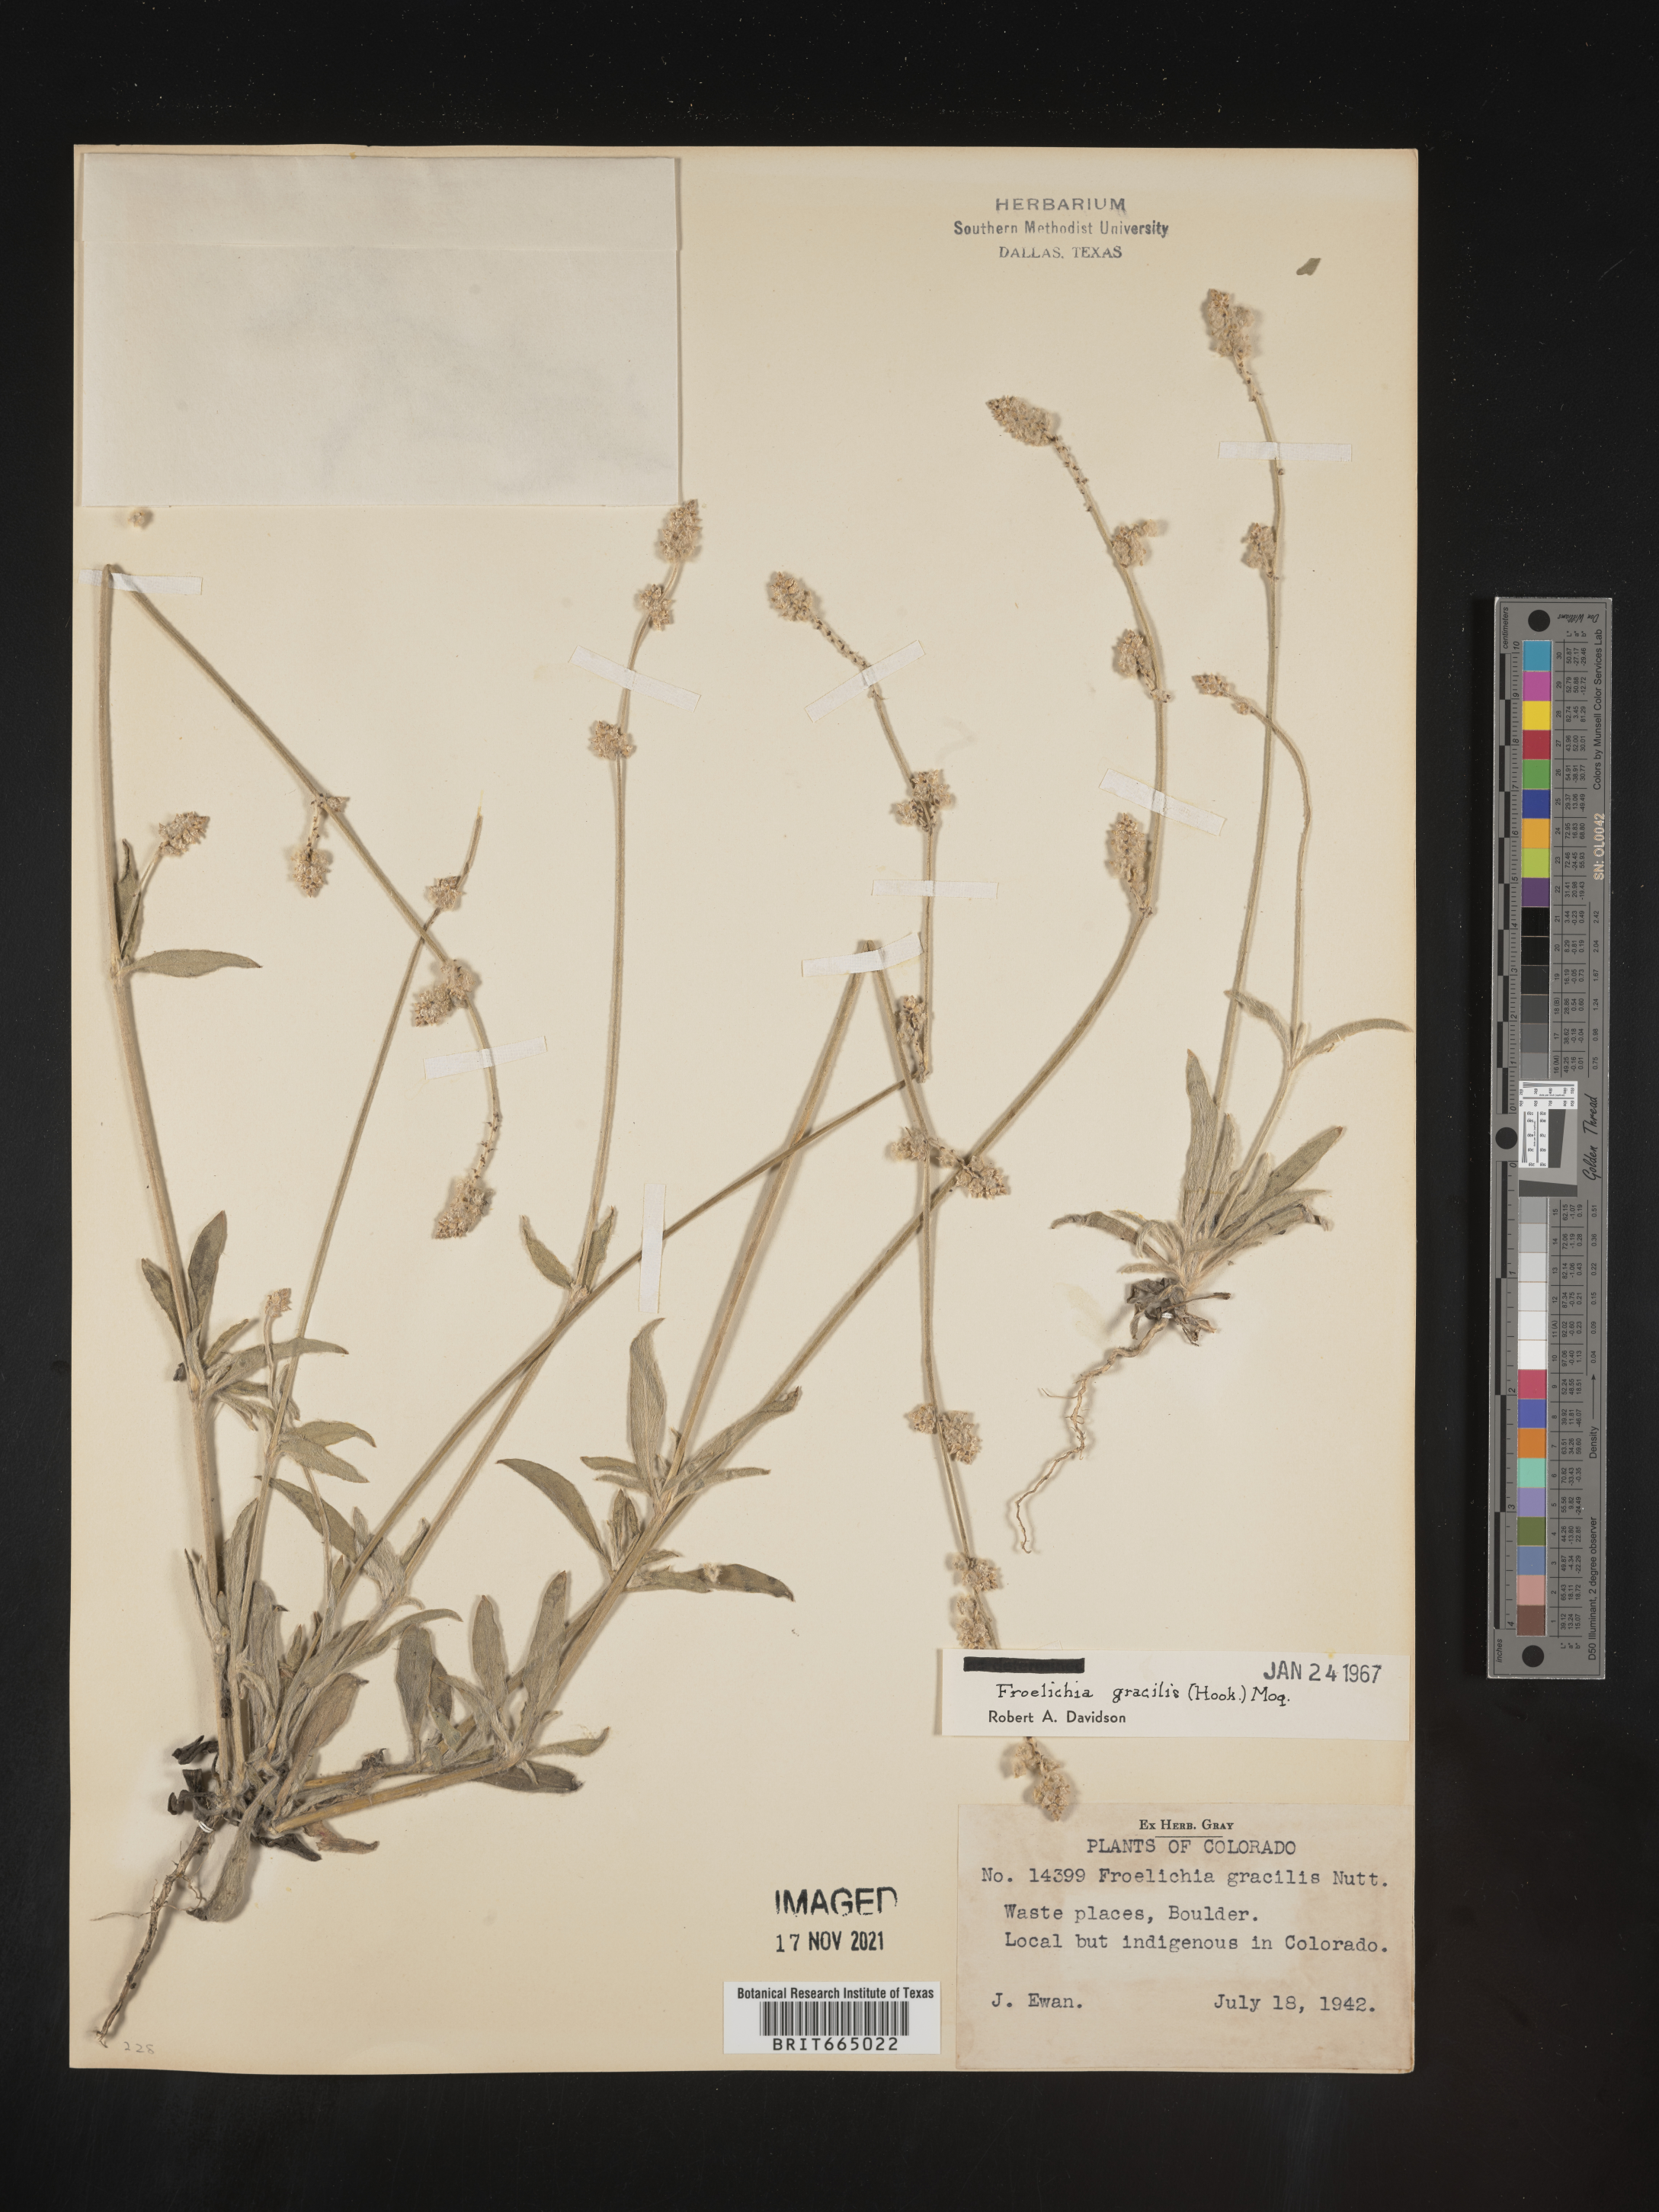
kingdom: Plantae
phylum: Tracheophyta
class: Magnoliopsida
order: Caryophyllales
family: Amaranthaceae
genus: Froelichia
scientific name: Froelichia gracilis
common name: Slender cottonweed
